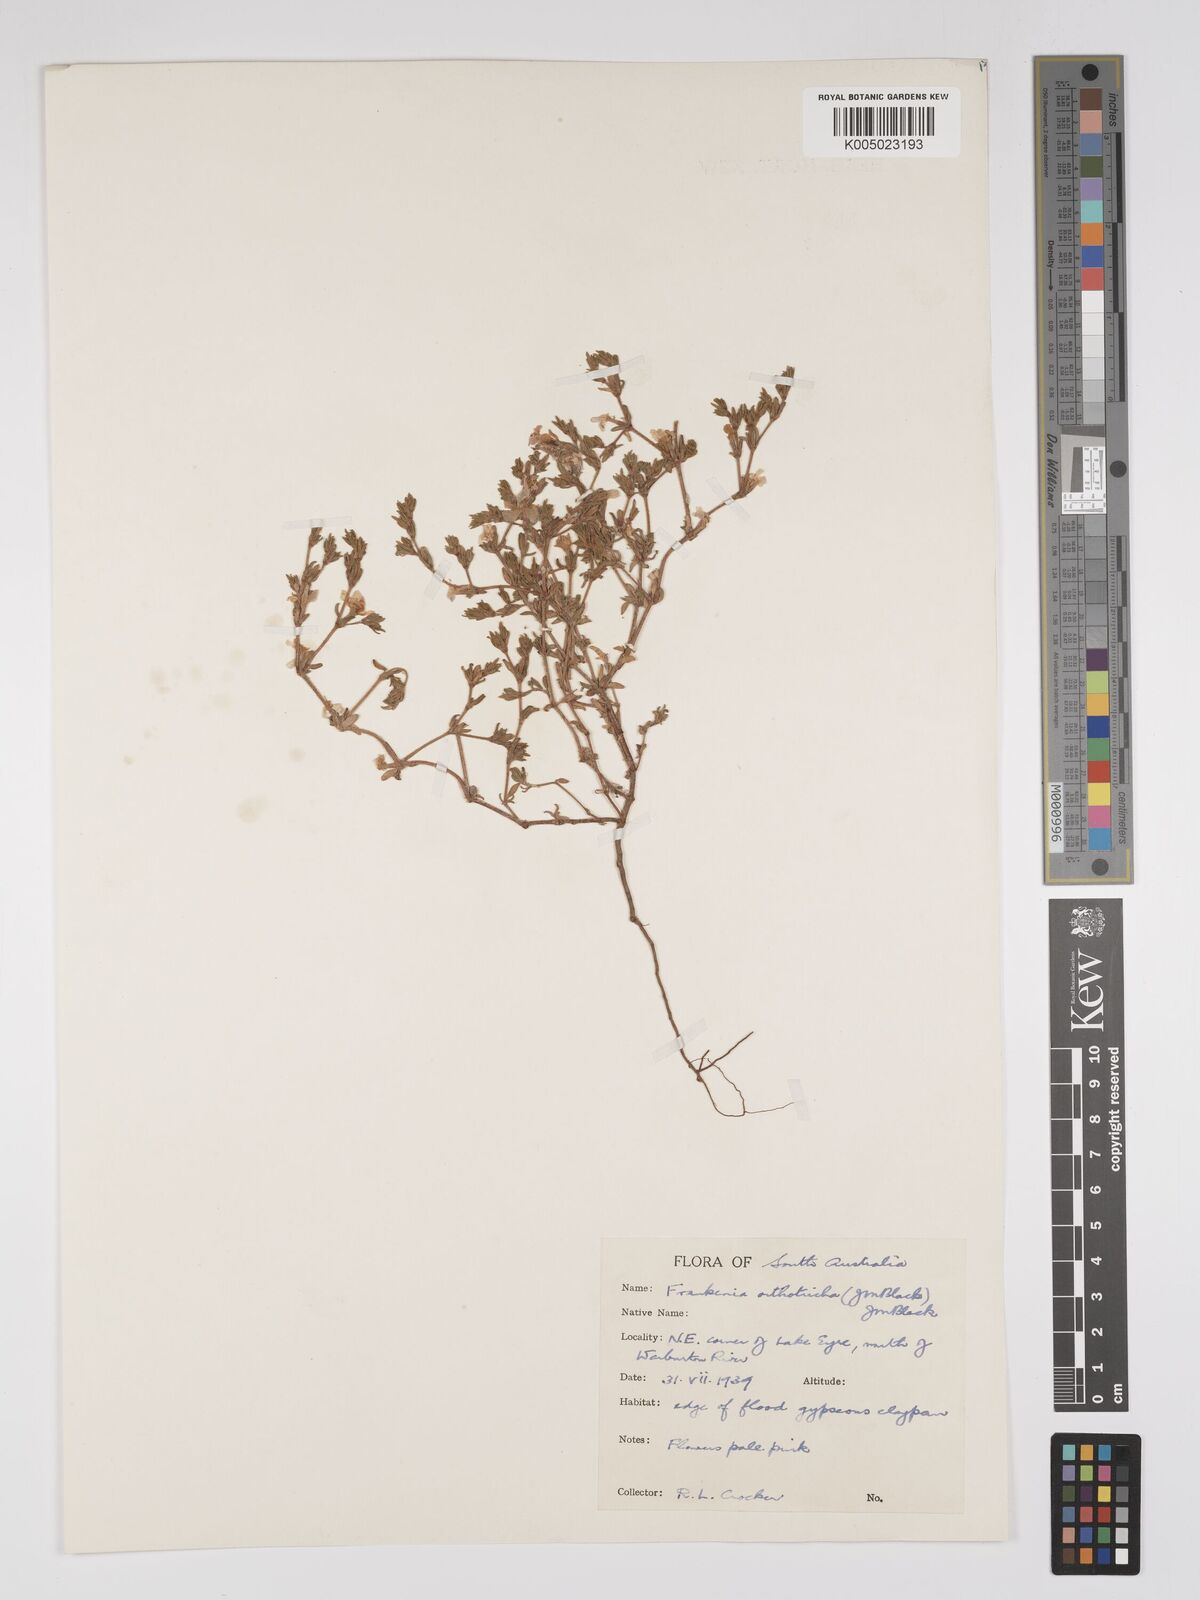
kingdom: Plantae
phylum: Tracheophyta
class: Magnoliopsida
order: Caryophyllales
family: Frankeniaceae
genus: Frankenia
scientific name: Frankenia orthotricha
